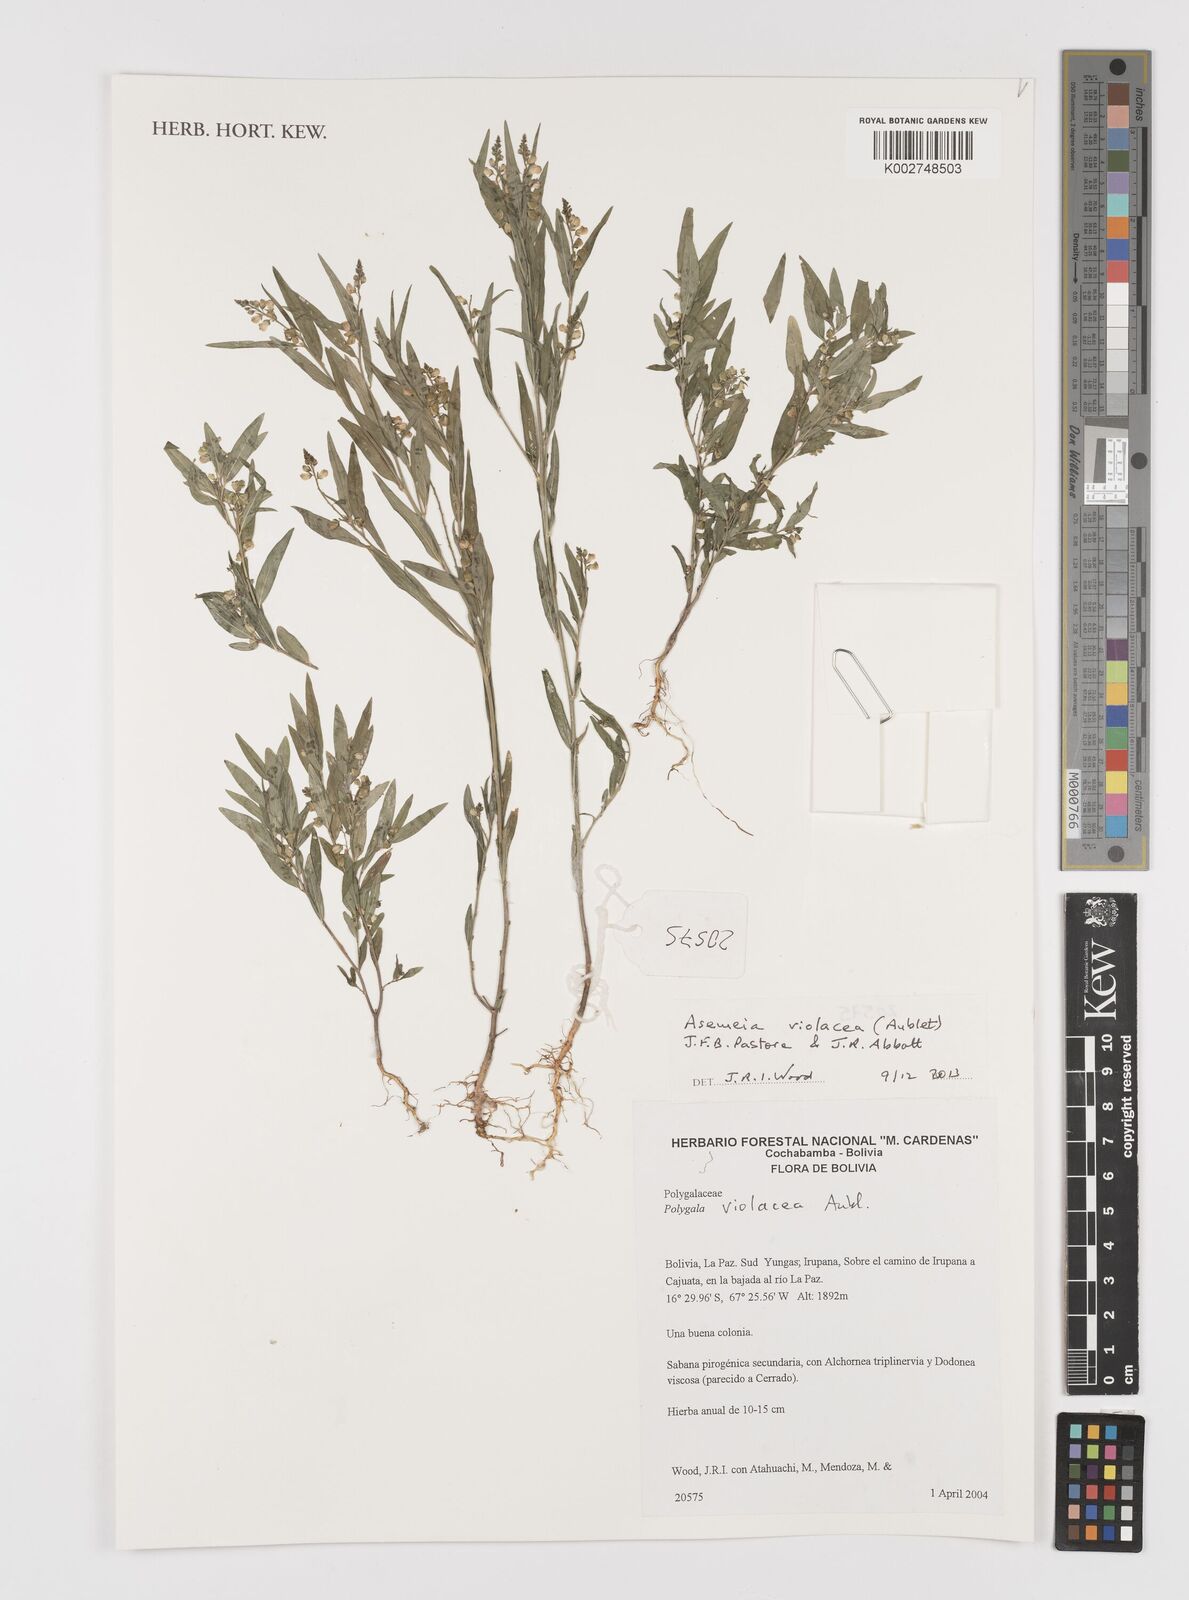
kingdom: Plantae
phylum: Tracheophyta
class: Magnoliopsida
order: Fabales
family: Polygalaceae
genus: Asemeia
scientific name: Asemeia violacea
